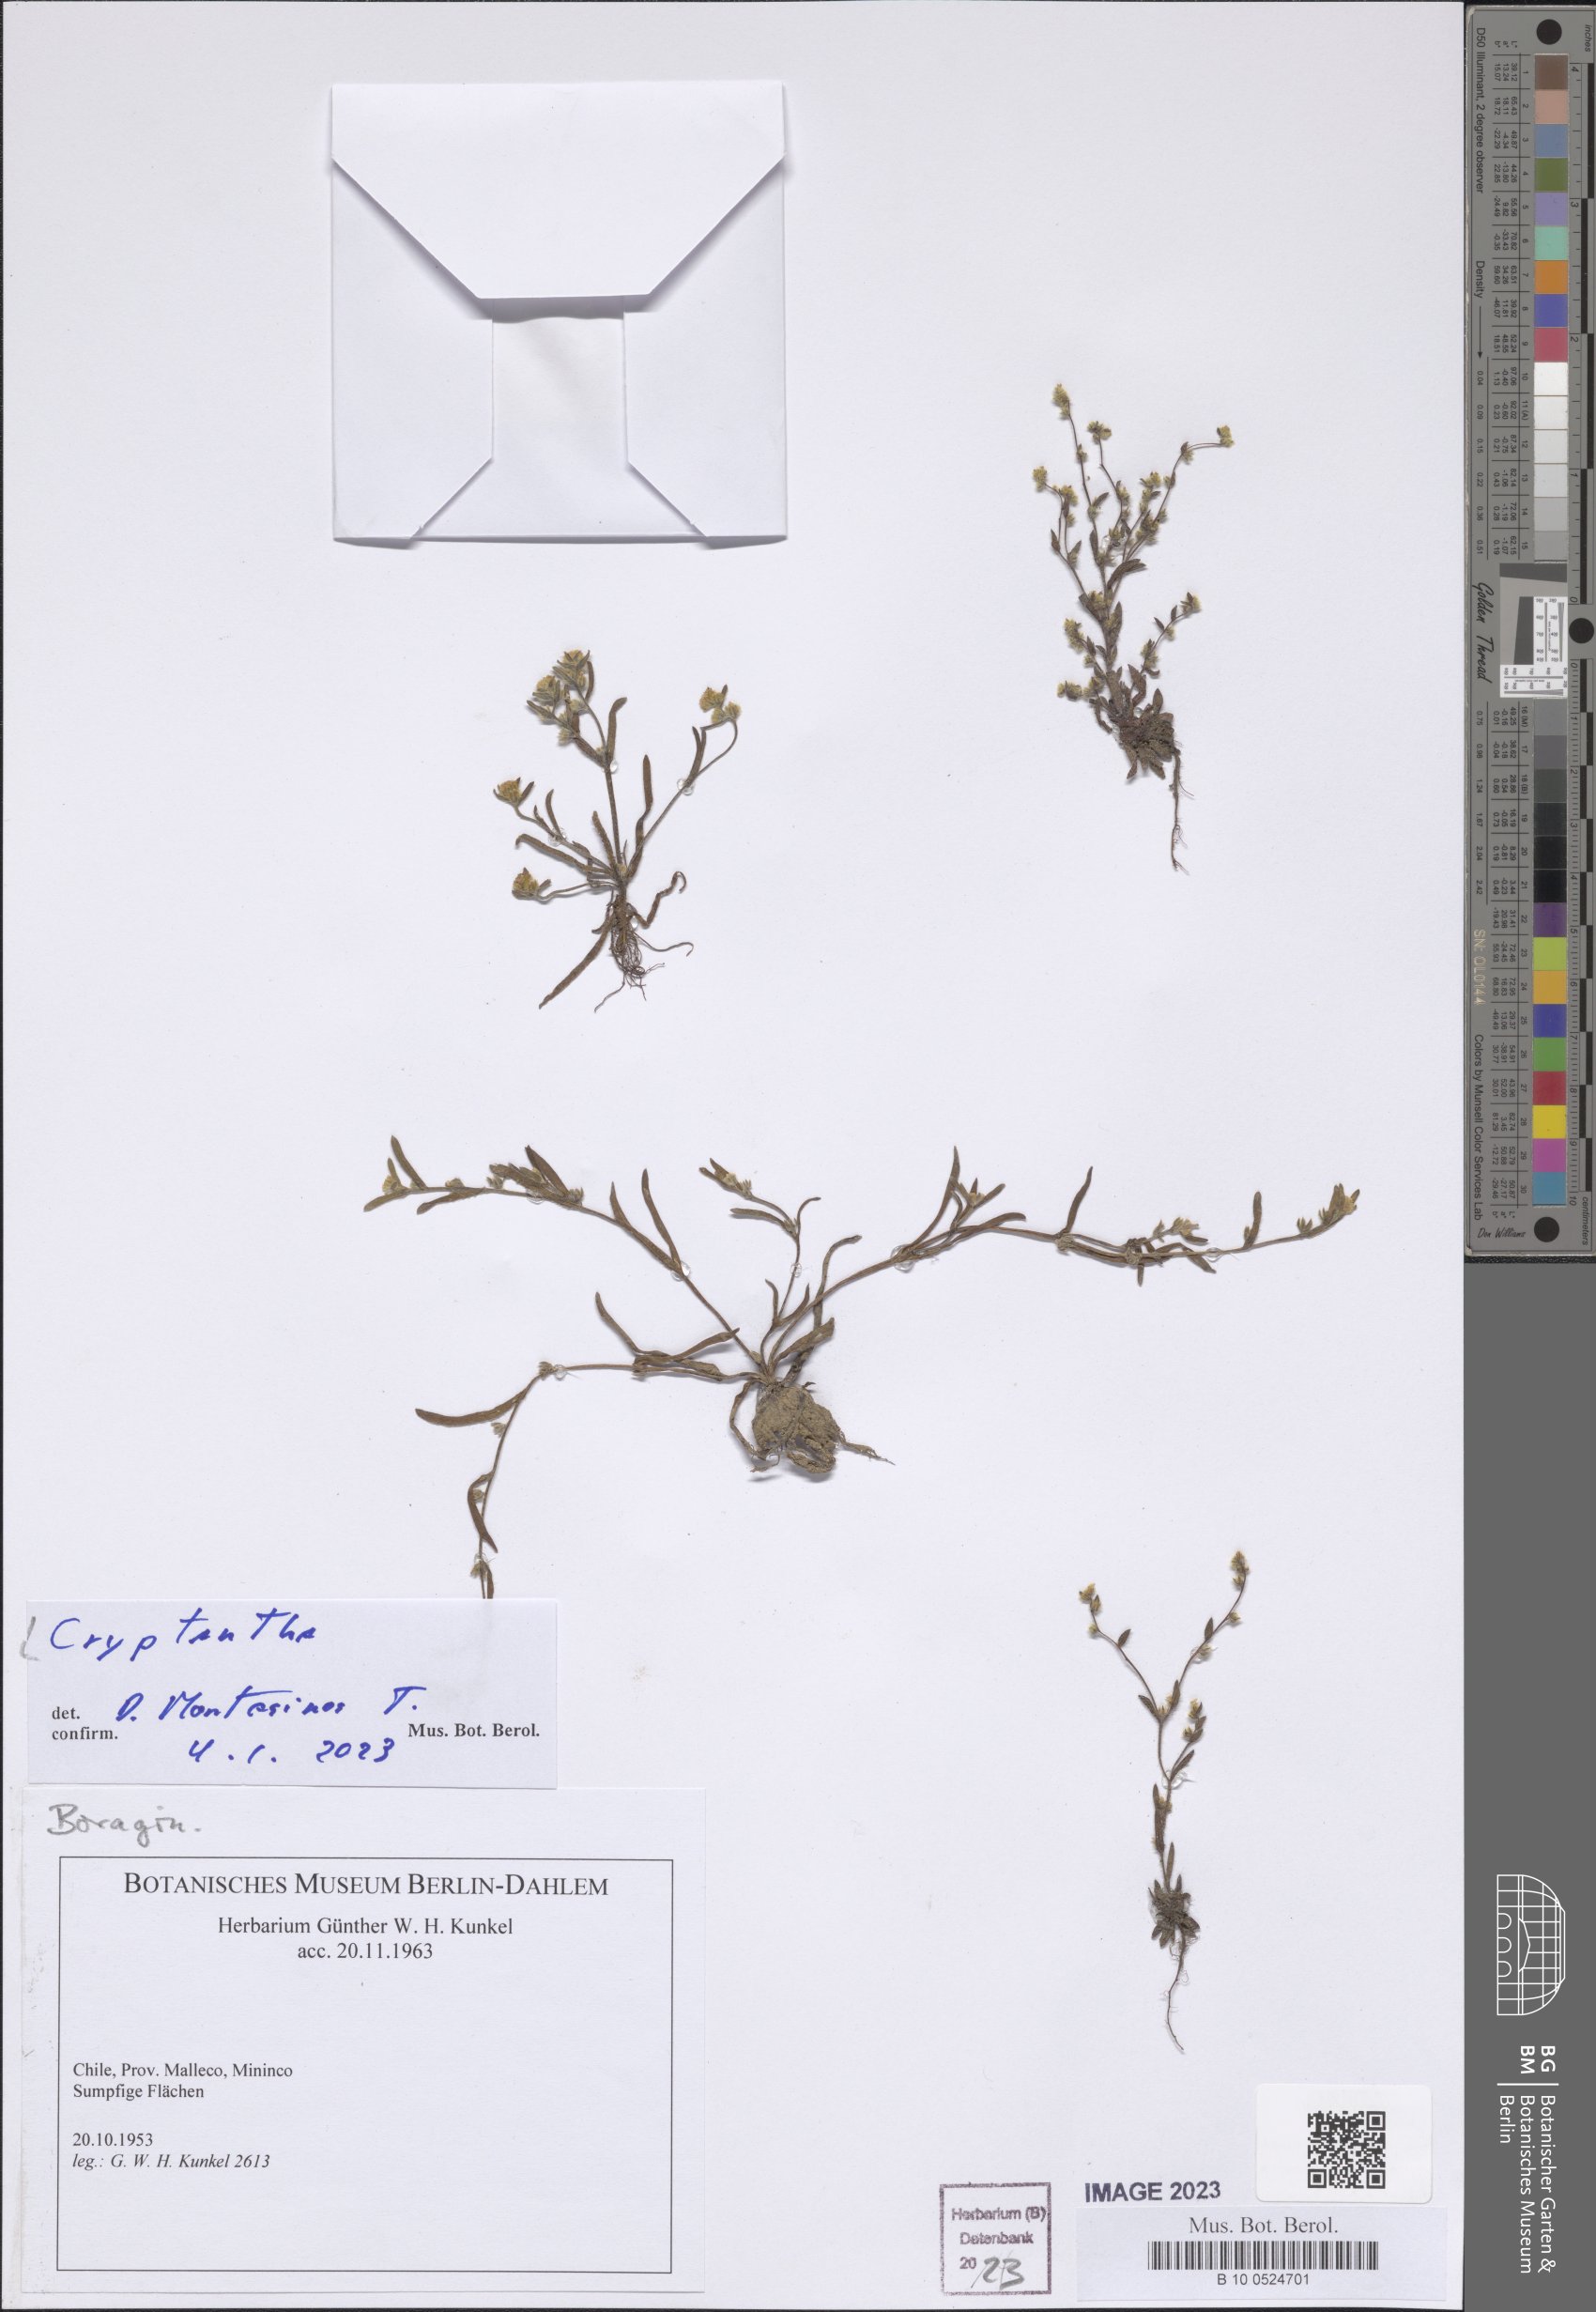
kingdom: Plantae
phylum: Tracheophyta
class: Magnoliopsida
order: Boraginales
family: Boraginaceae
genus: Cryptantha
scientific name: Cryptantha
